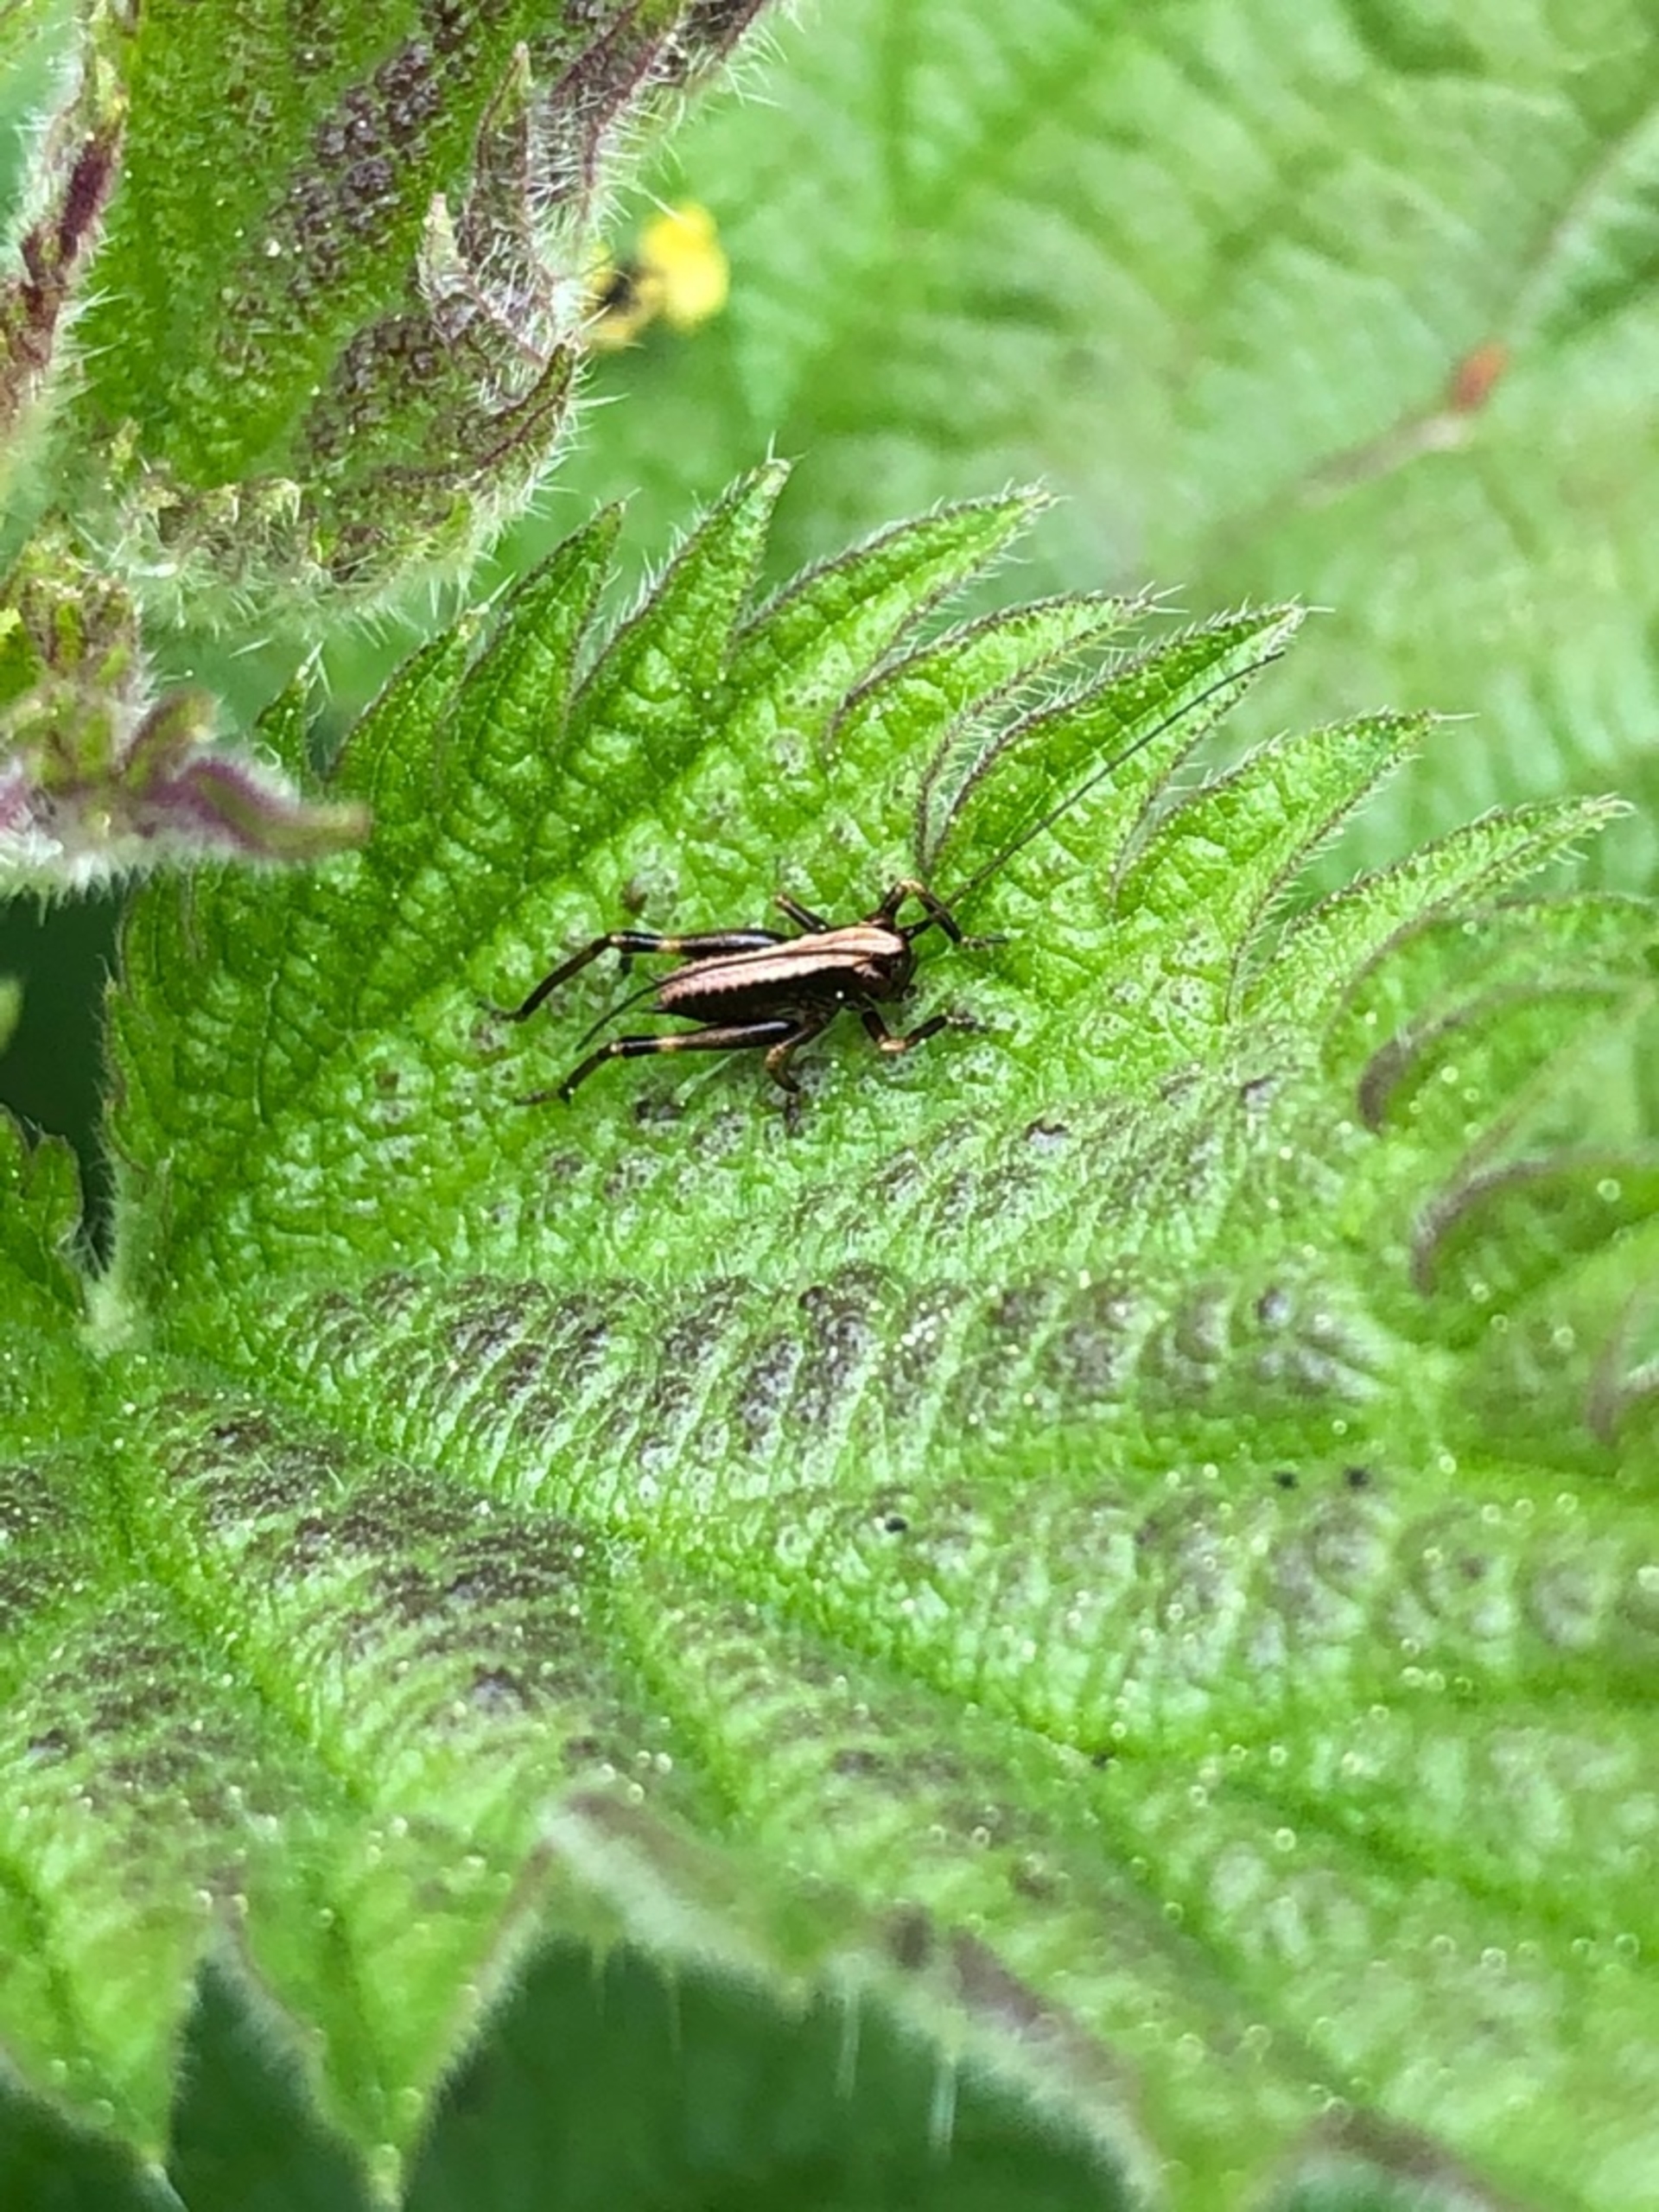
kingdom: Animalia
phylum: Arthropoda
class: Insecta
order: Orthoptera
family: Tettigoniidae
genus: Pholidoptera
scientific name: Pholidoptera griseoaptera
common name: Buskgræshoppe
